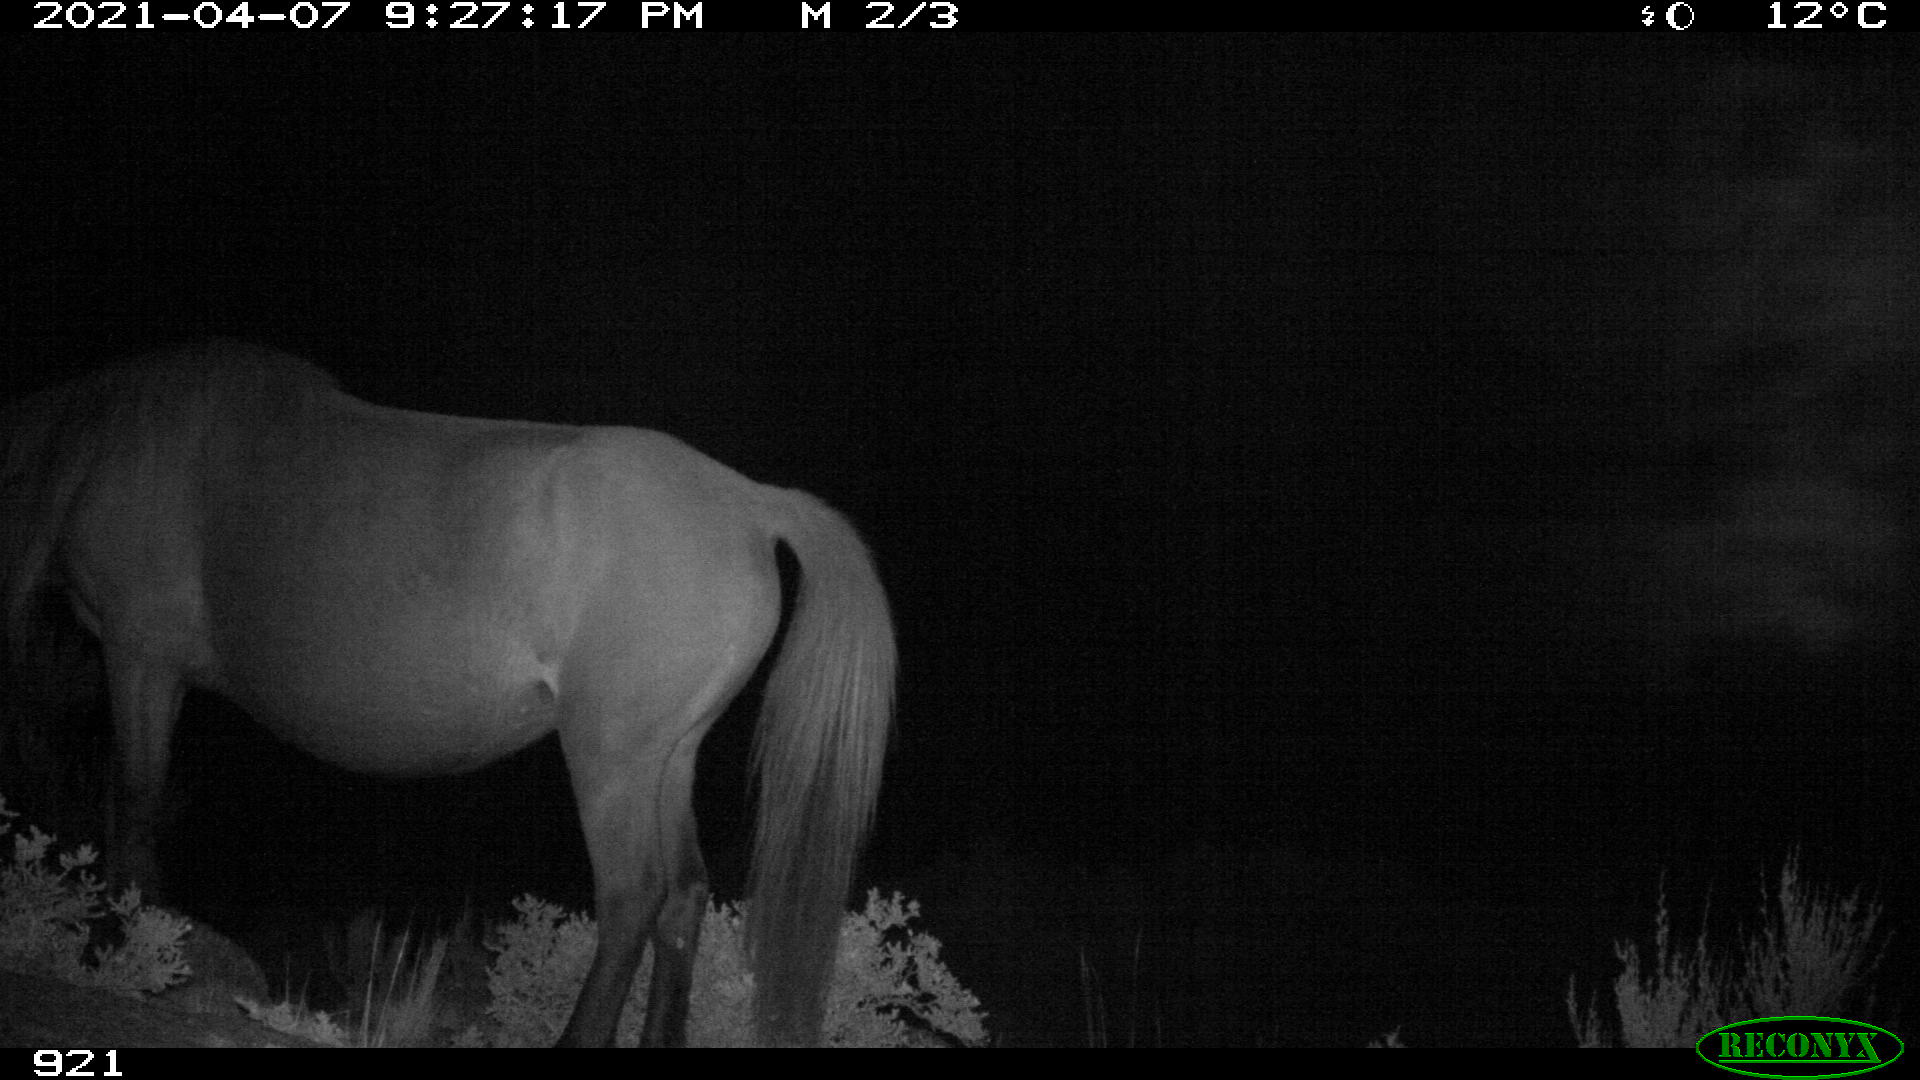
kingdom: Animalia
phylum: Chordata
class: Mammalia
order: Perissodactyla
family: Equidae
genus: Equus
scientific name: Equus caballus
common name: Horse
